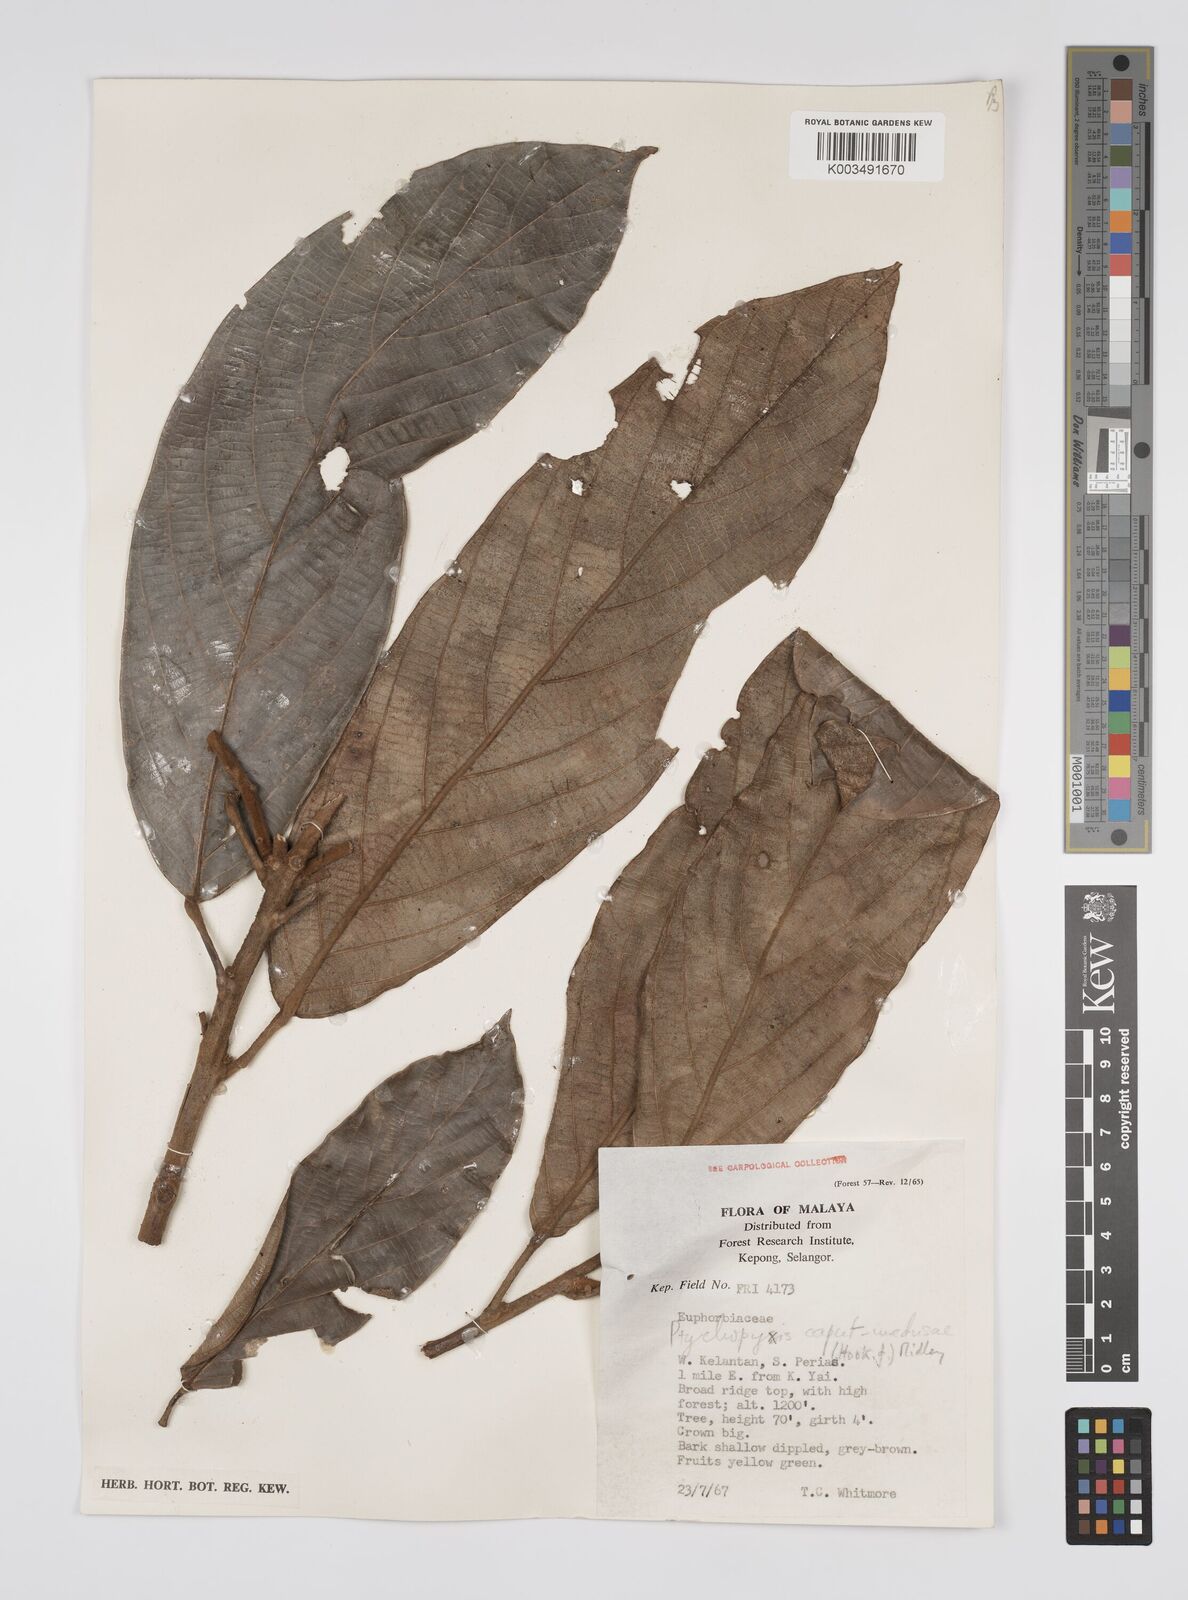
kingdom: Plantae
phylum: Tracheophyta
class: Magnoliopsida
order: Malpighiales
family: Euphorbiaceae
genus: Ptychopyxis
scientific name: Ptychopyxis caput-medusae
